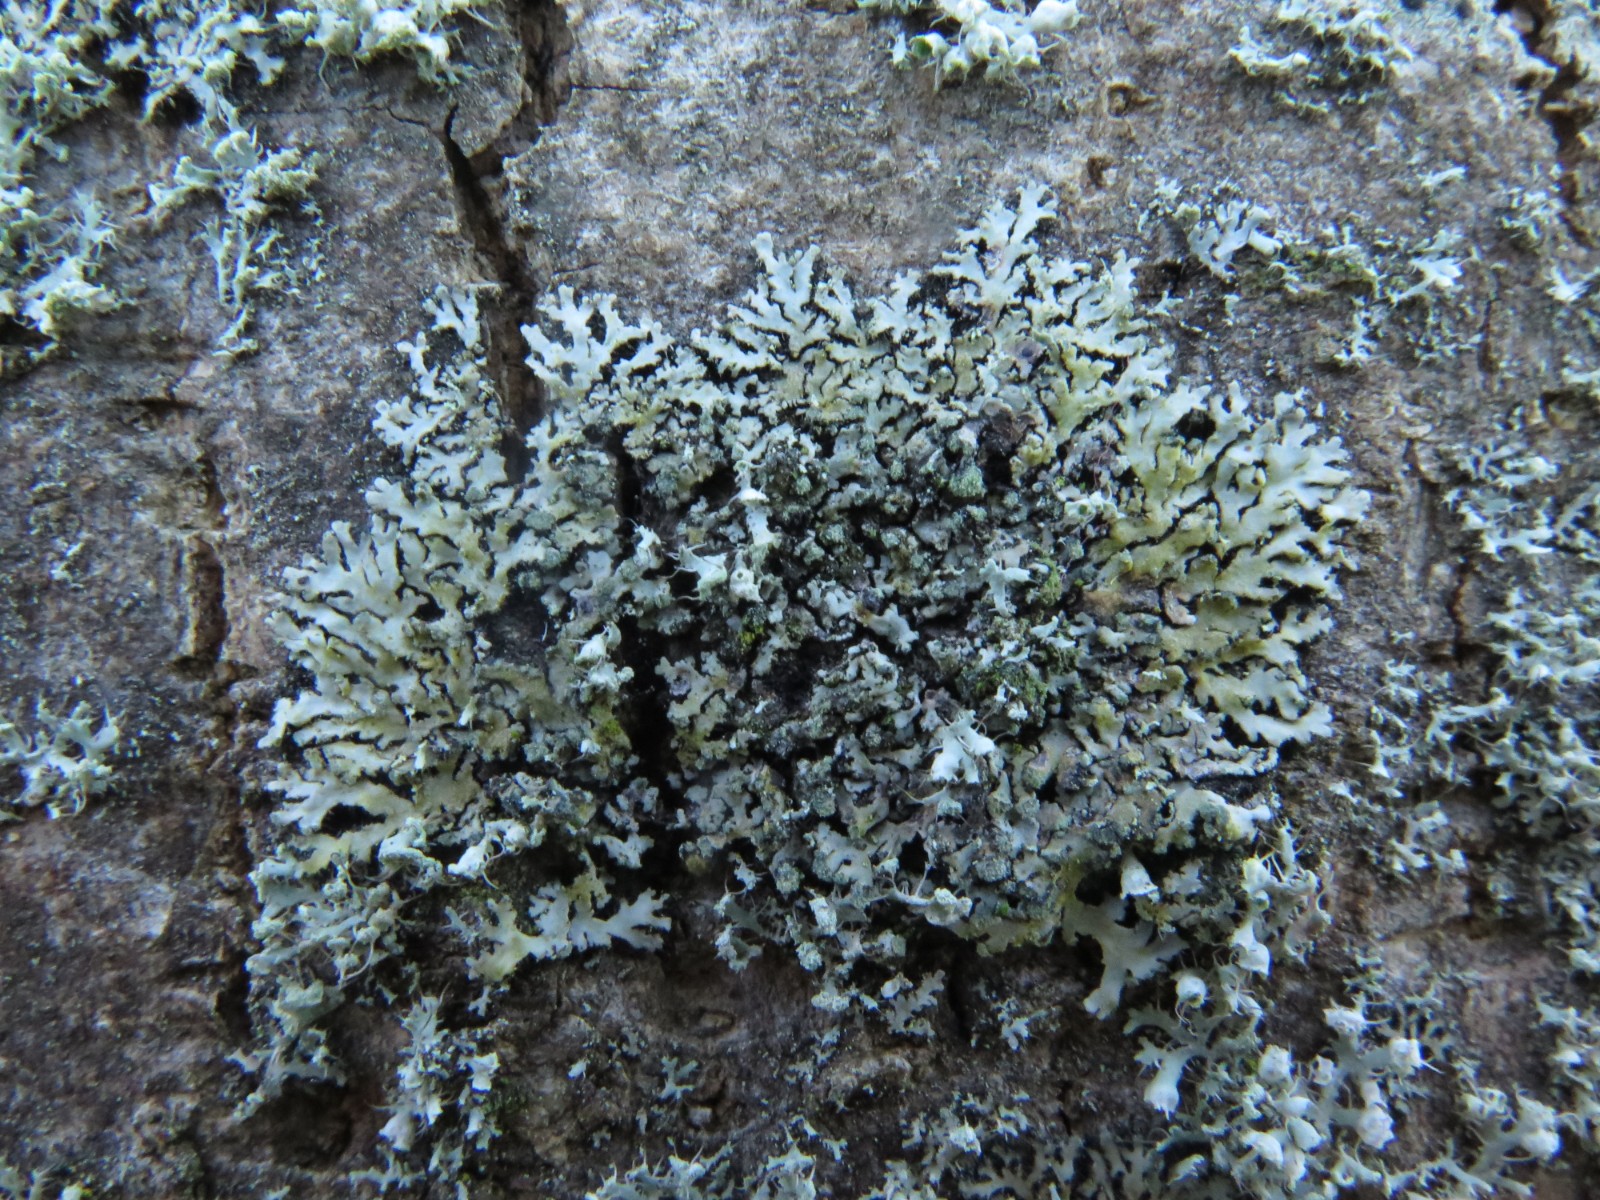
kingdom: Fungi
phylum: Ascomycota
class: Lecanoromycetes
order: Caliciales
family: Physciaceae
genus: Physcia
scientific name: Physcia caesia
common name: blågrå rosetlav
